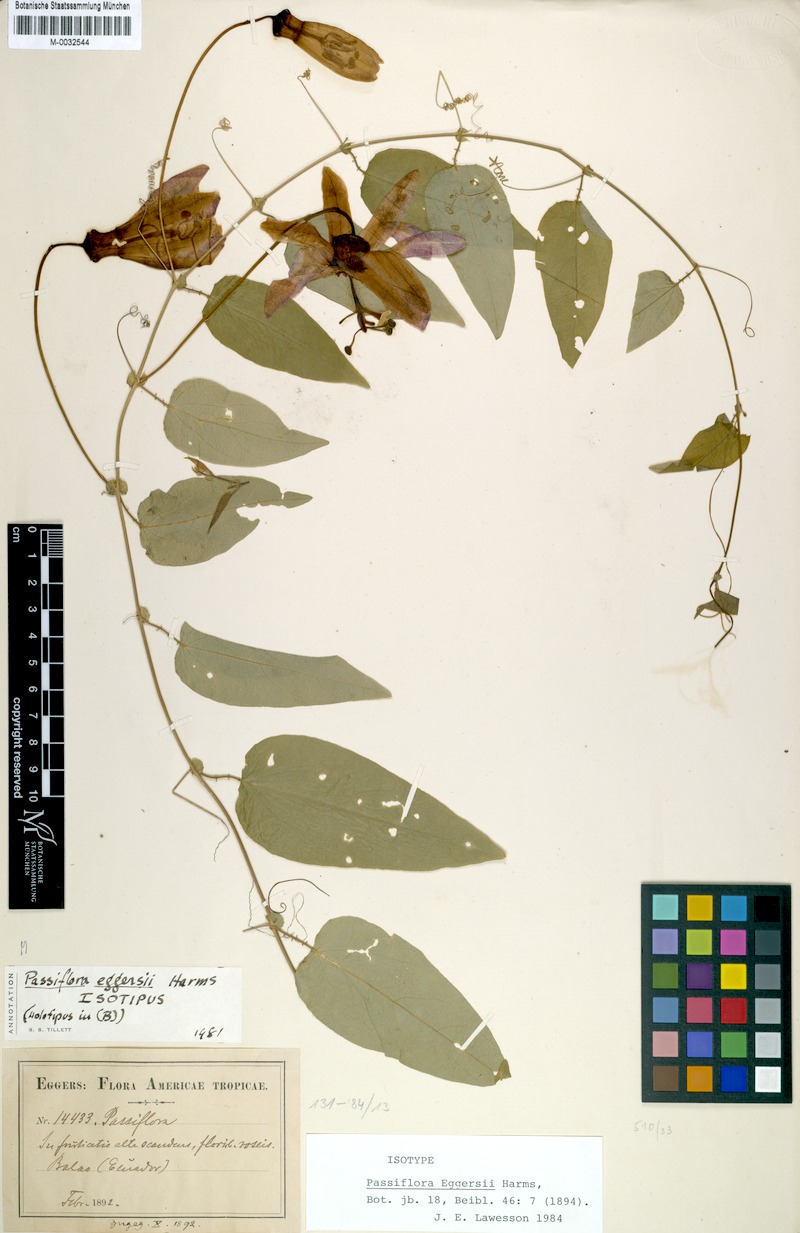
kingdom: Plantae
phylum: Tracheophyta
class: Magnoliopsida
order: Malpighiales
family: Passifloraceae
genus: Passiflora
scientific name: Passiflora eggersii
